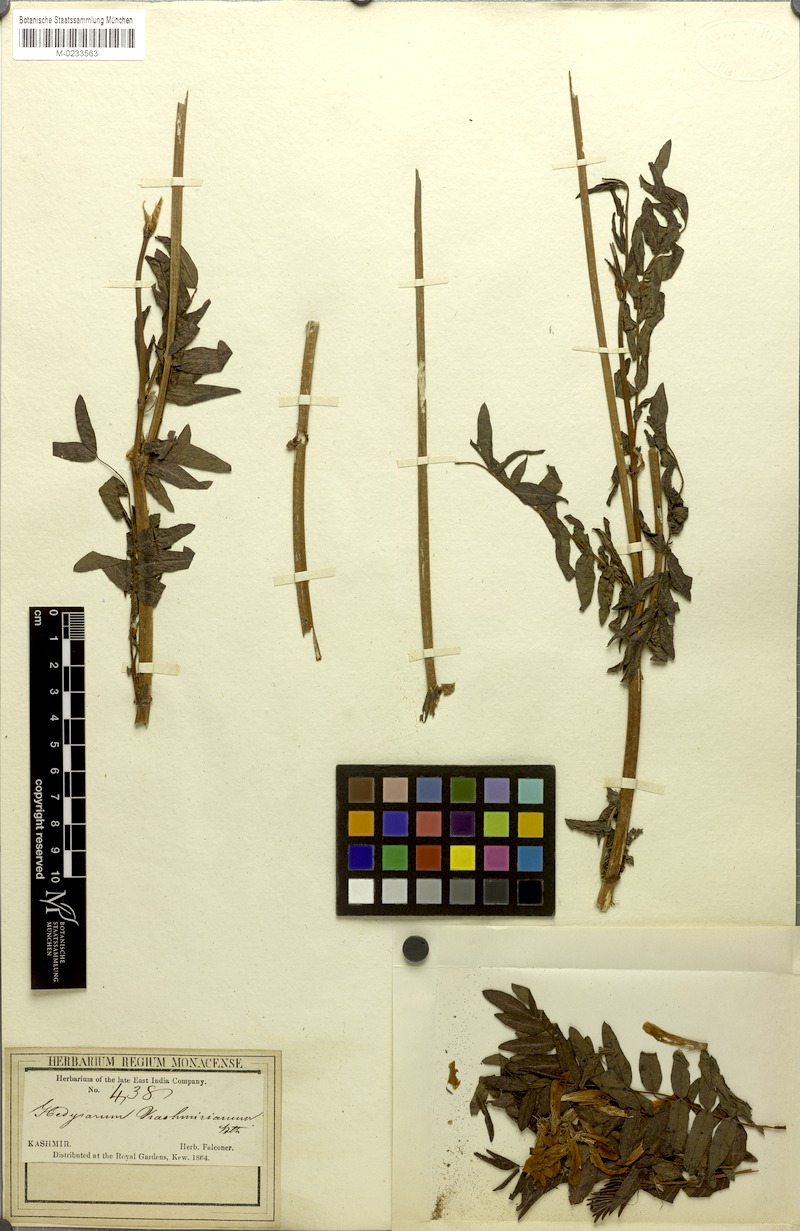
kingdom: Plantae
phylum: Tracheophyta
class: Magnoliopsida
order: Fabales
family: Fabaceae
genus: Hedysarum
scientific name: Hedysarum cachemirianum
